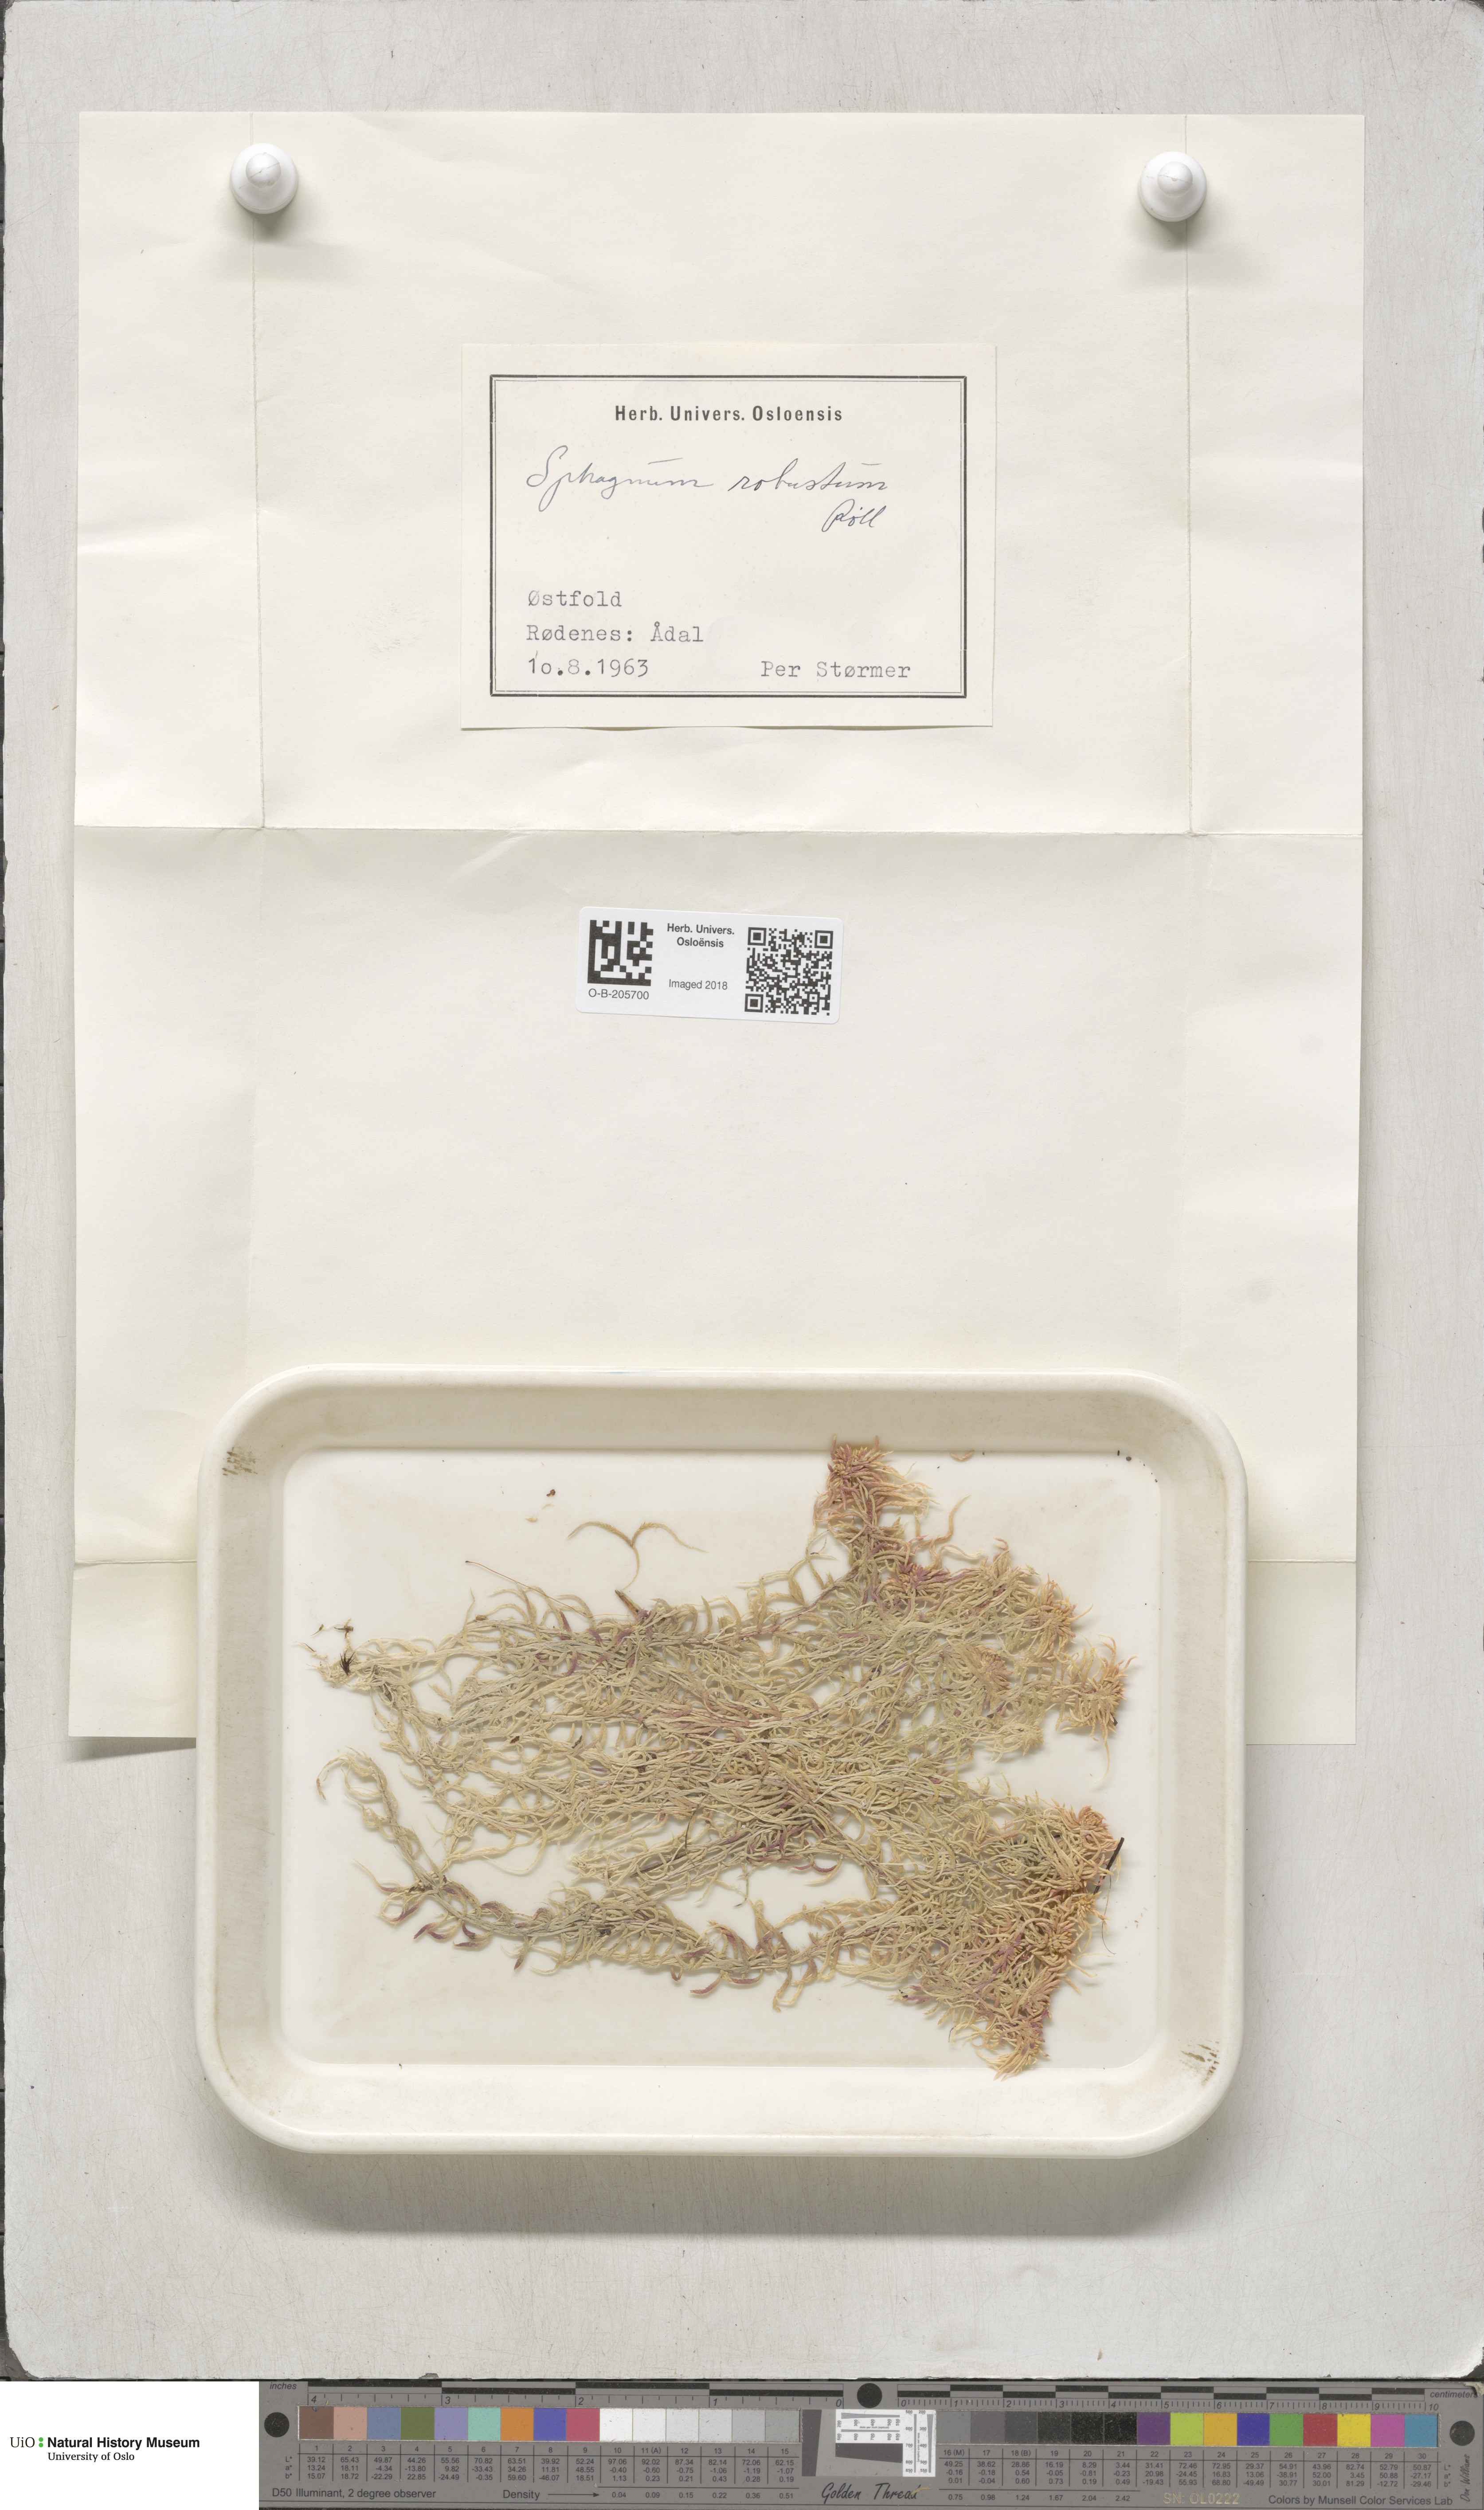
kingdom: Plantae
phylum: Bryophyta
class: Sphagnopsida
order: Sphagnales
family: Sphagnaceae
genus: Sphagnum
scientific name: Sphagnum russowii
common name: Russow's peat moss
